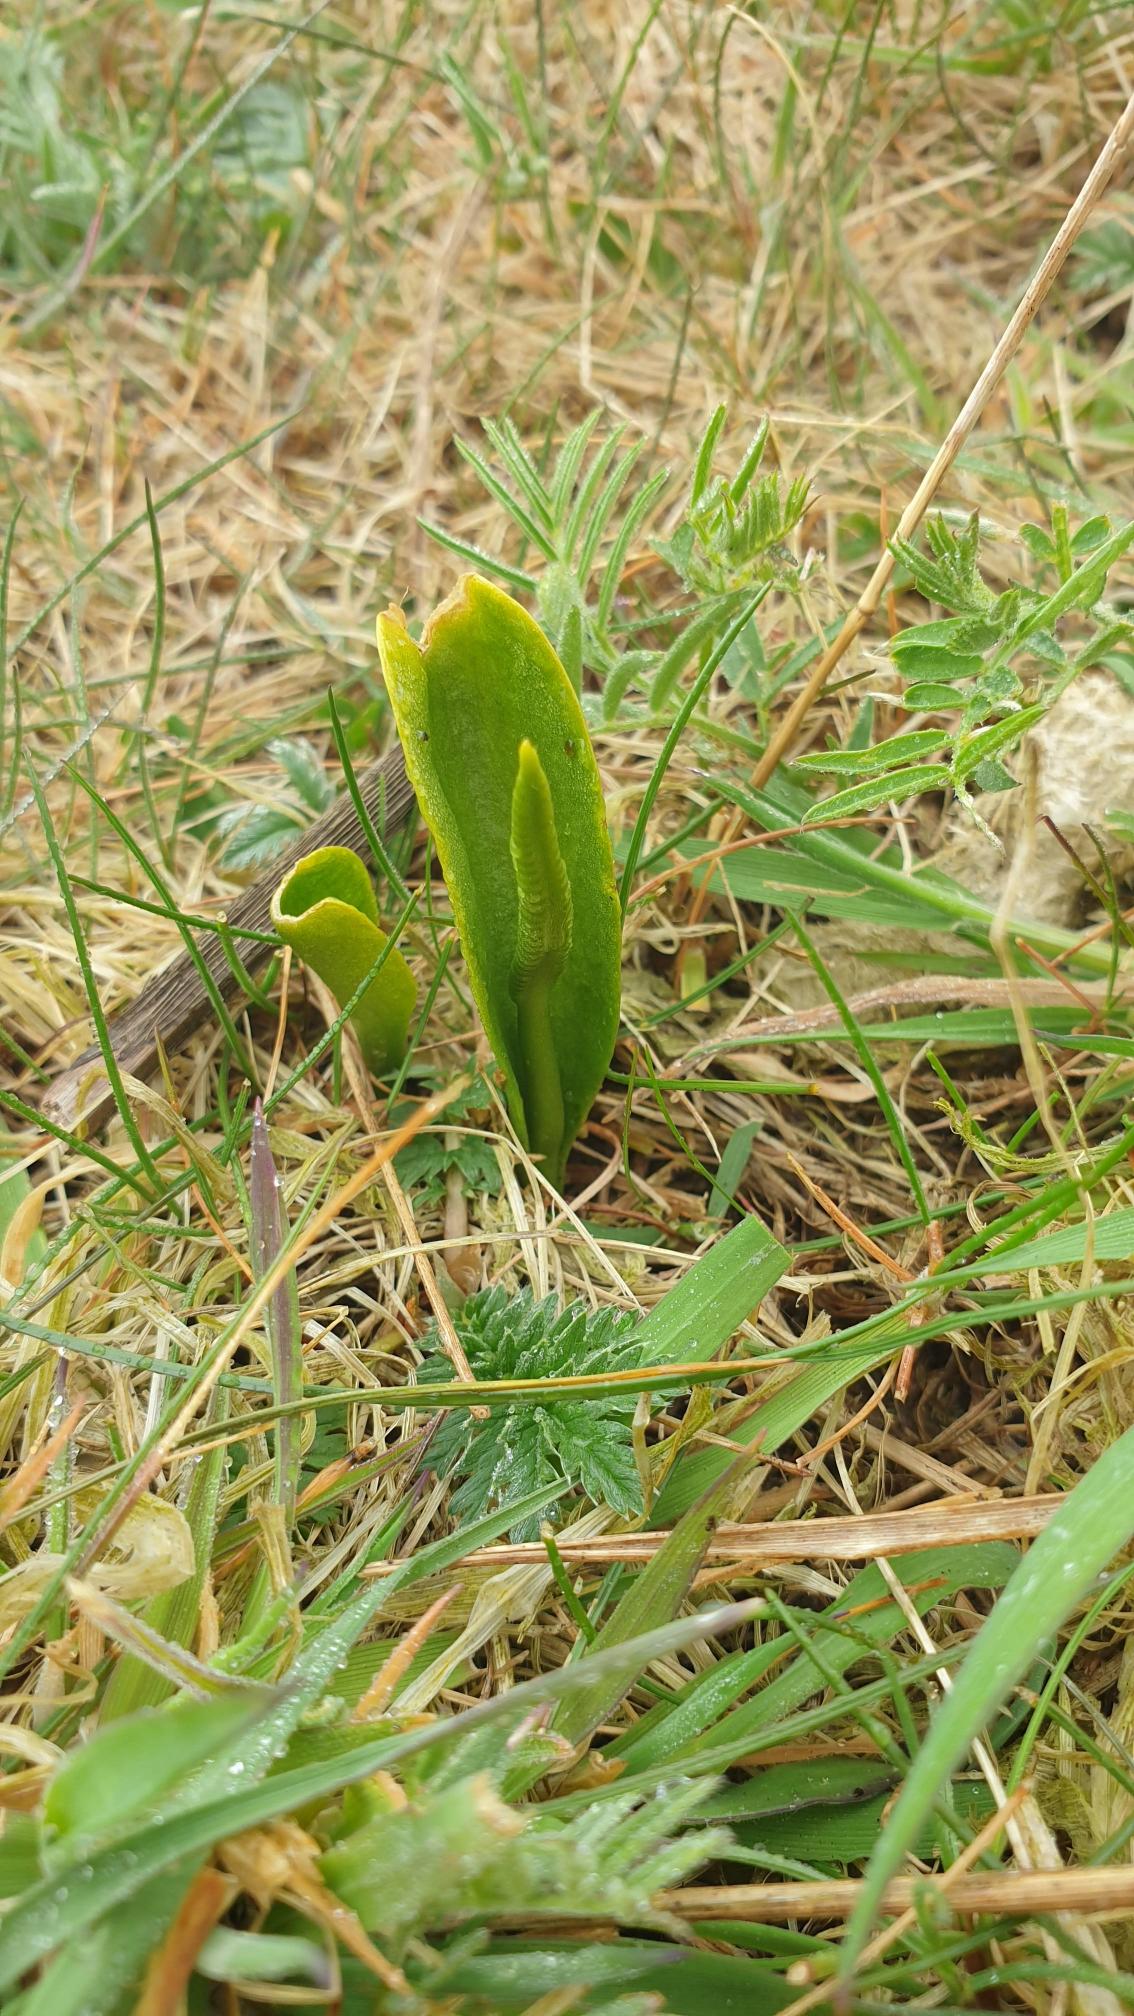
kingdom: Plantae
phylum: Tracheophyta
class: Polypodiopsida
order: Ophioglossales
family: Ophioglossaceae
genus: Ophioglossum
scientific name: Ophioglossum vulgatum
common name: Slangetunge
